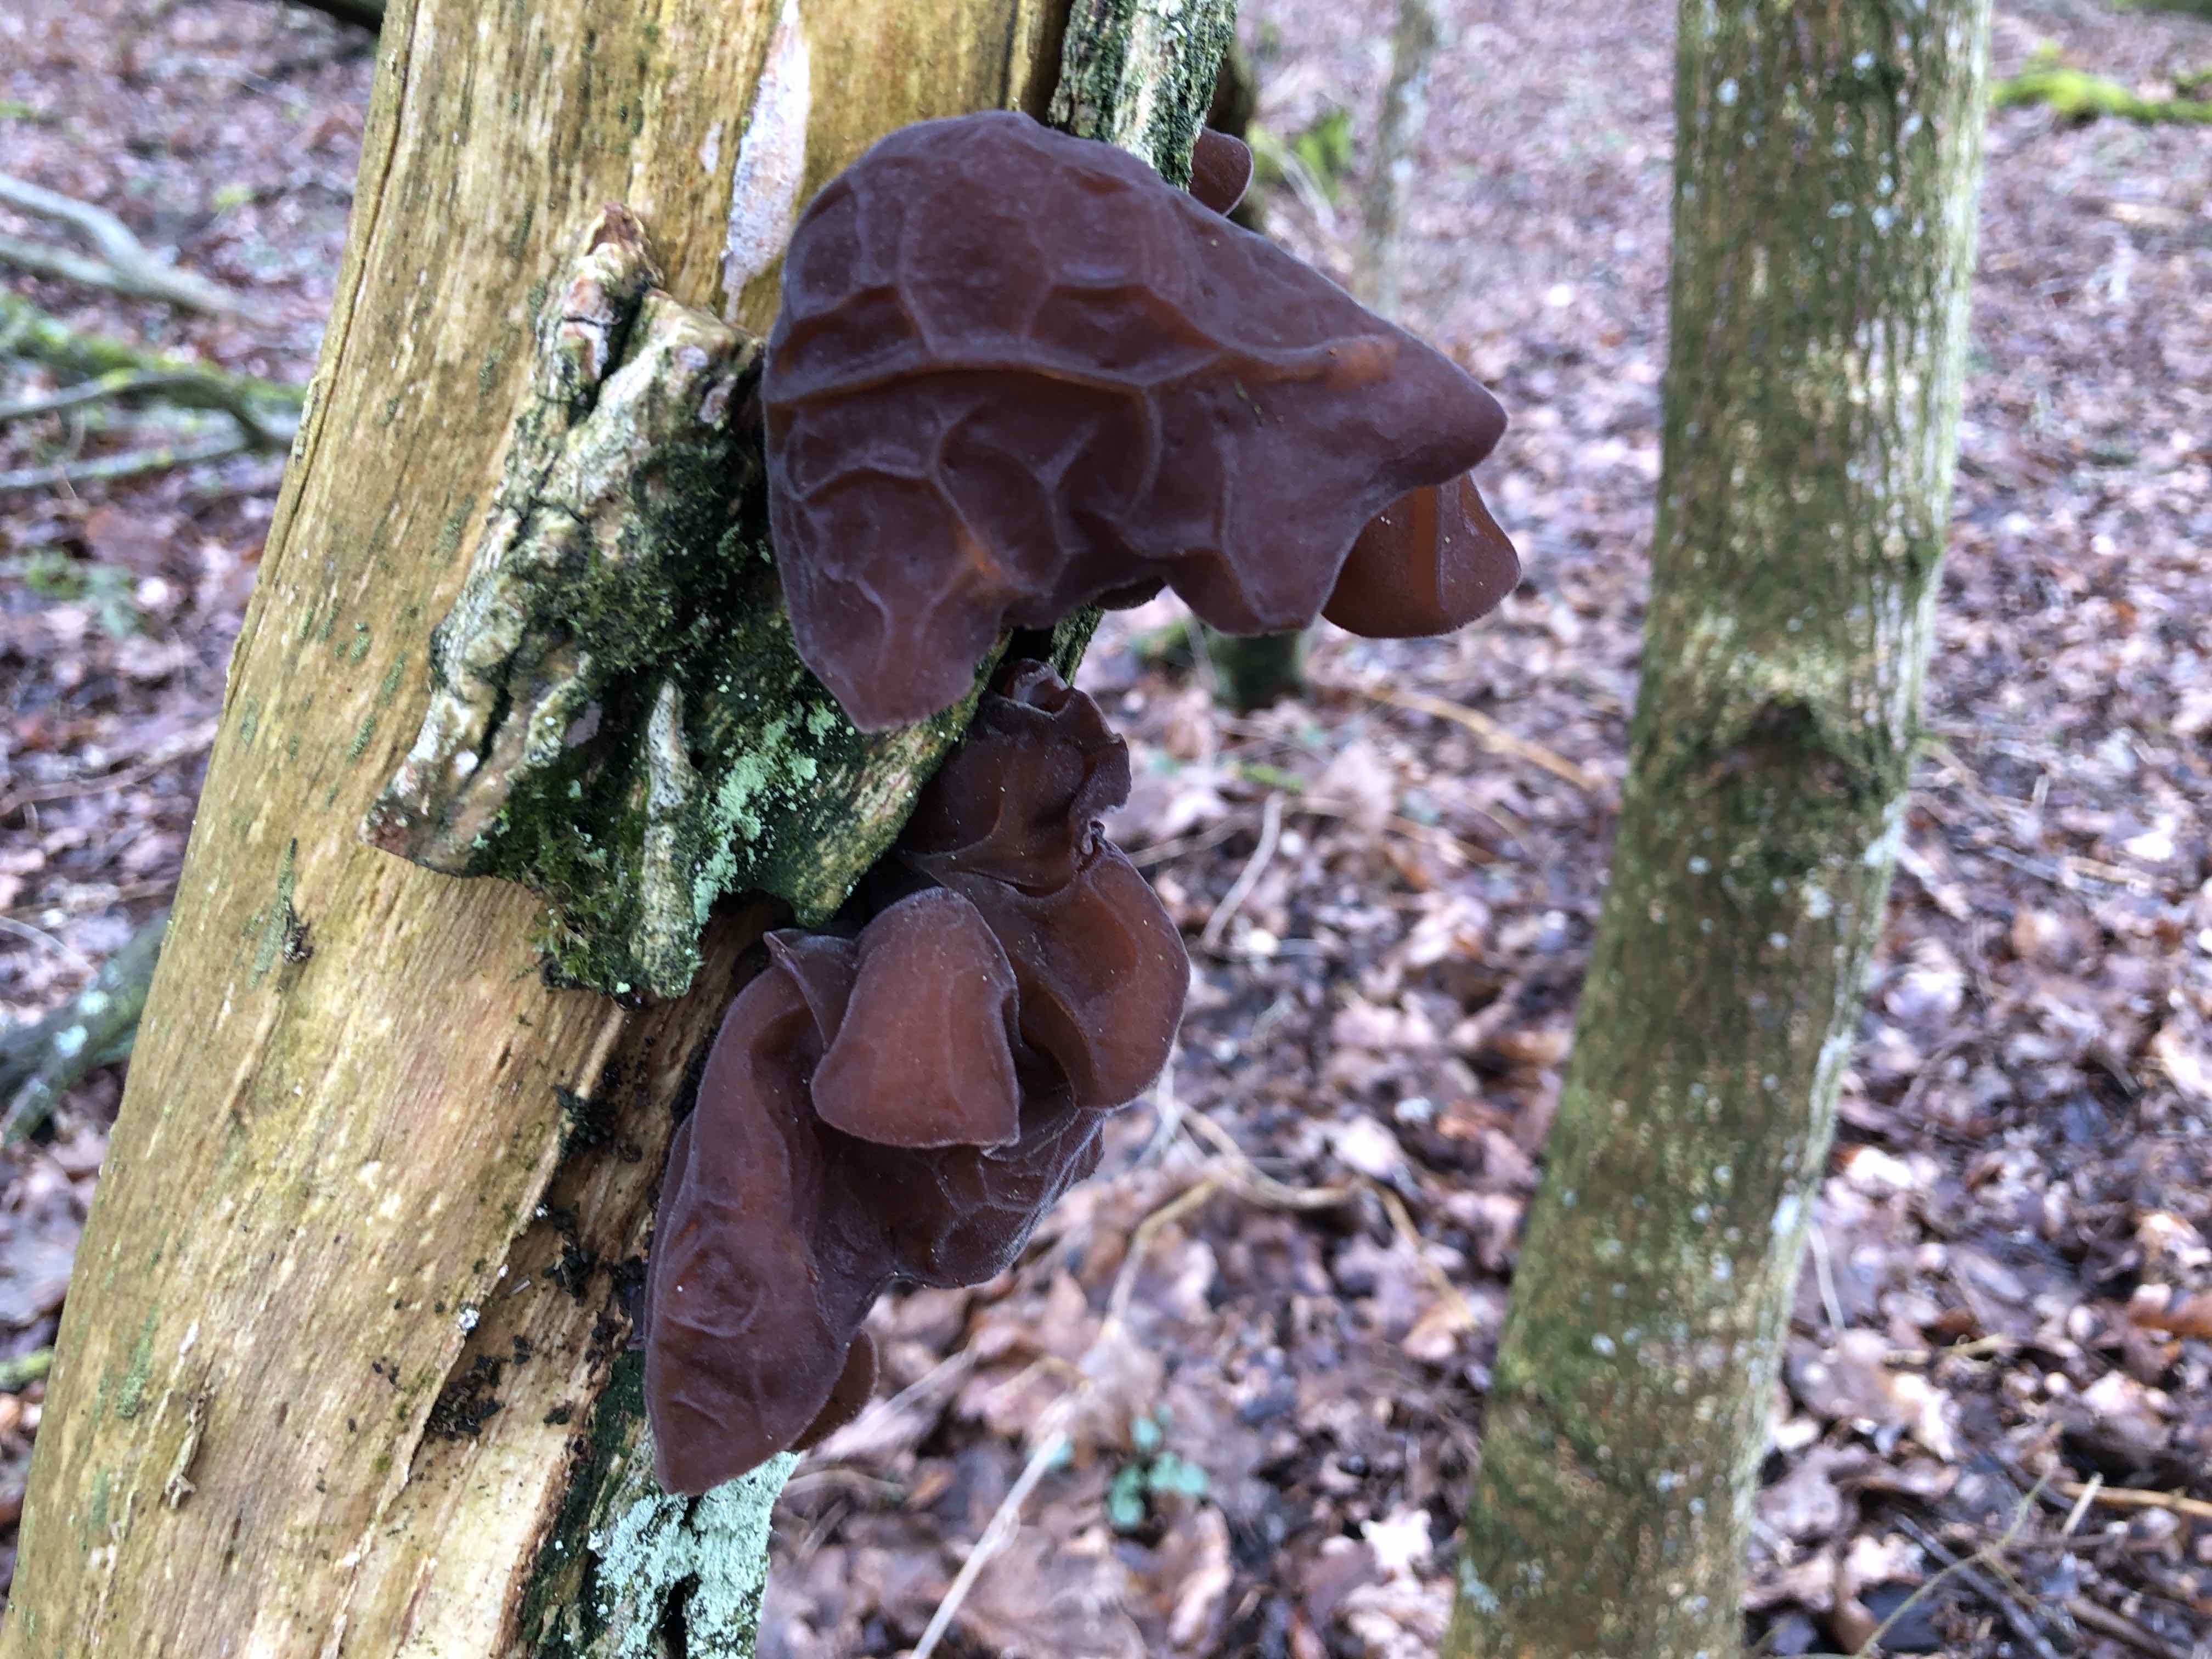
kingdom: Fungi
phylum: Basidiomycota
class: Agaricomycetes
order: Auriculariales
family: Auriculariaceae
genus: Auricularia
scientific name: Auricularia auricula-judae
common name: almindelig judasøre
